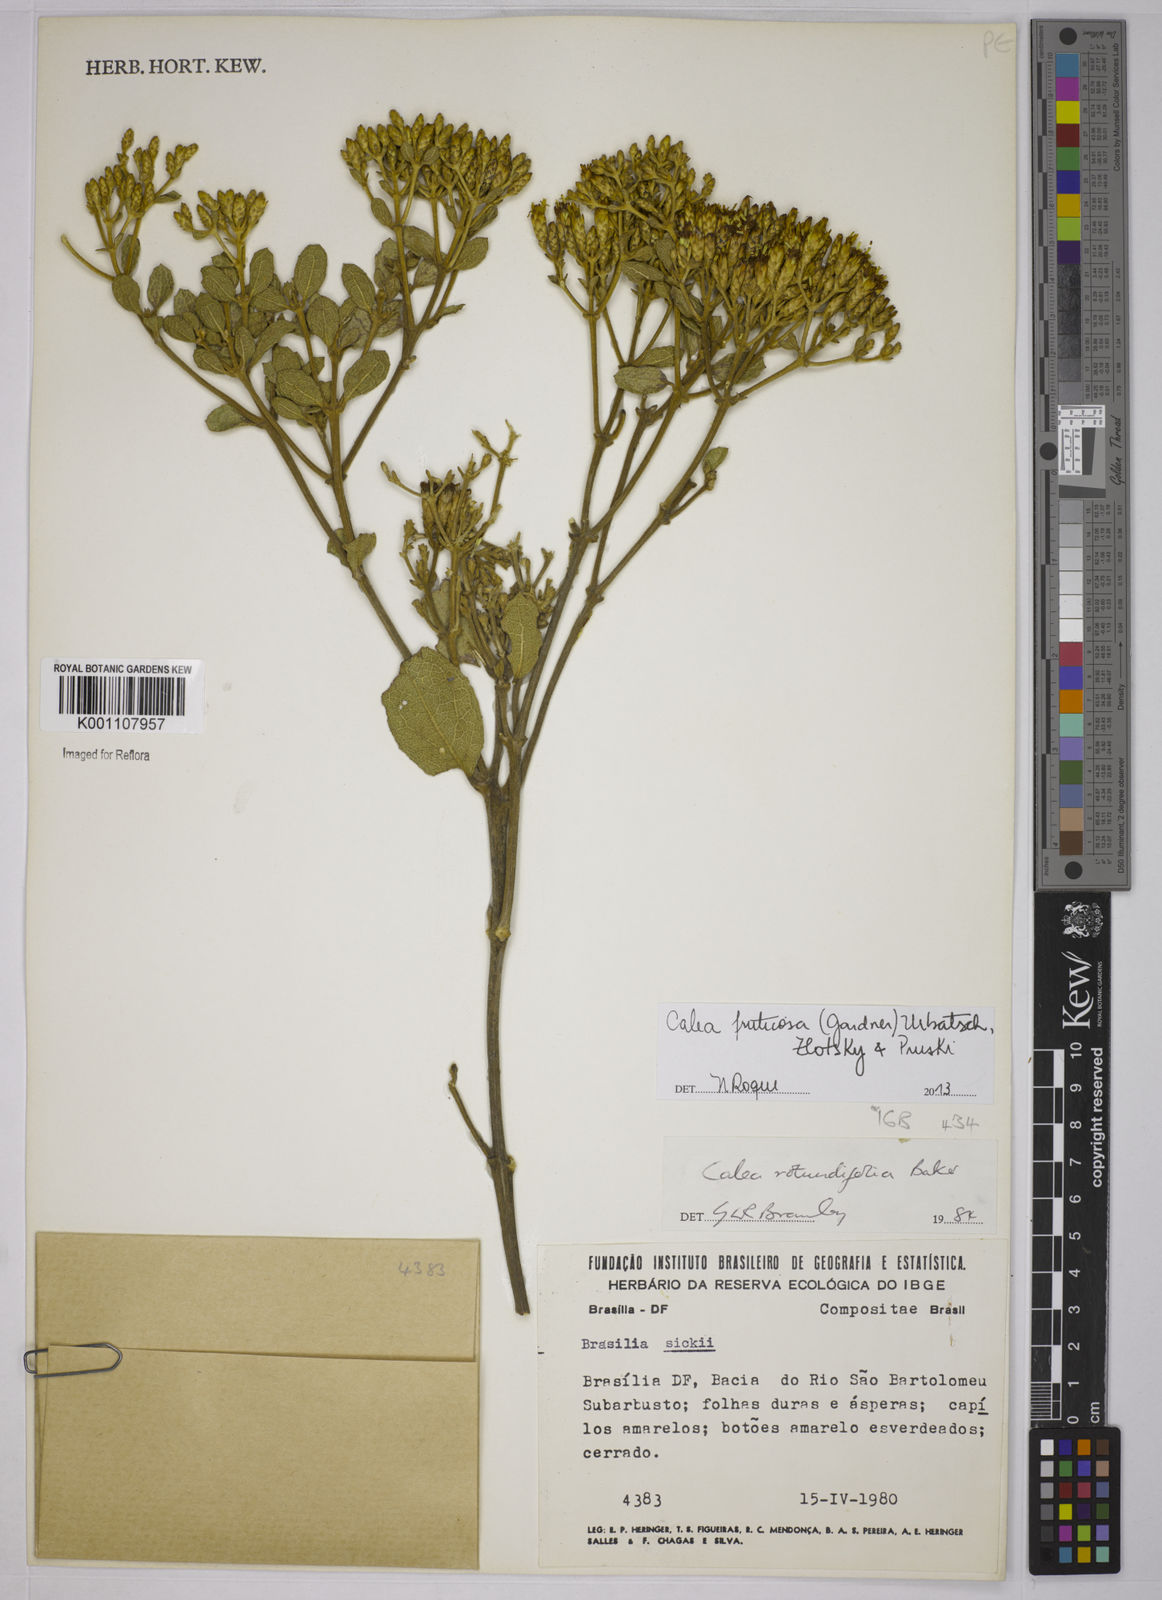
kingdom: Plantae
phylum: Tracheophyta
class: Magnoliopsida
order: Asterales
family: Asteraceae
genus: Calea
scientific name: Calea fruticosa
